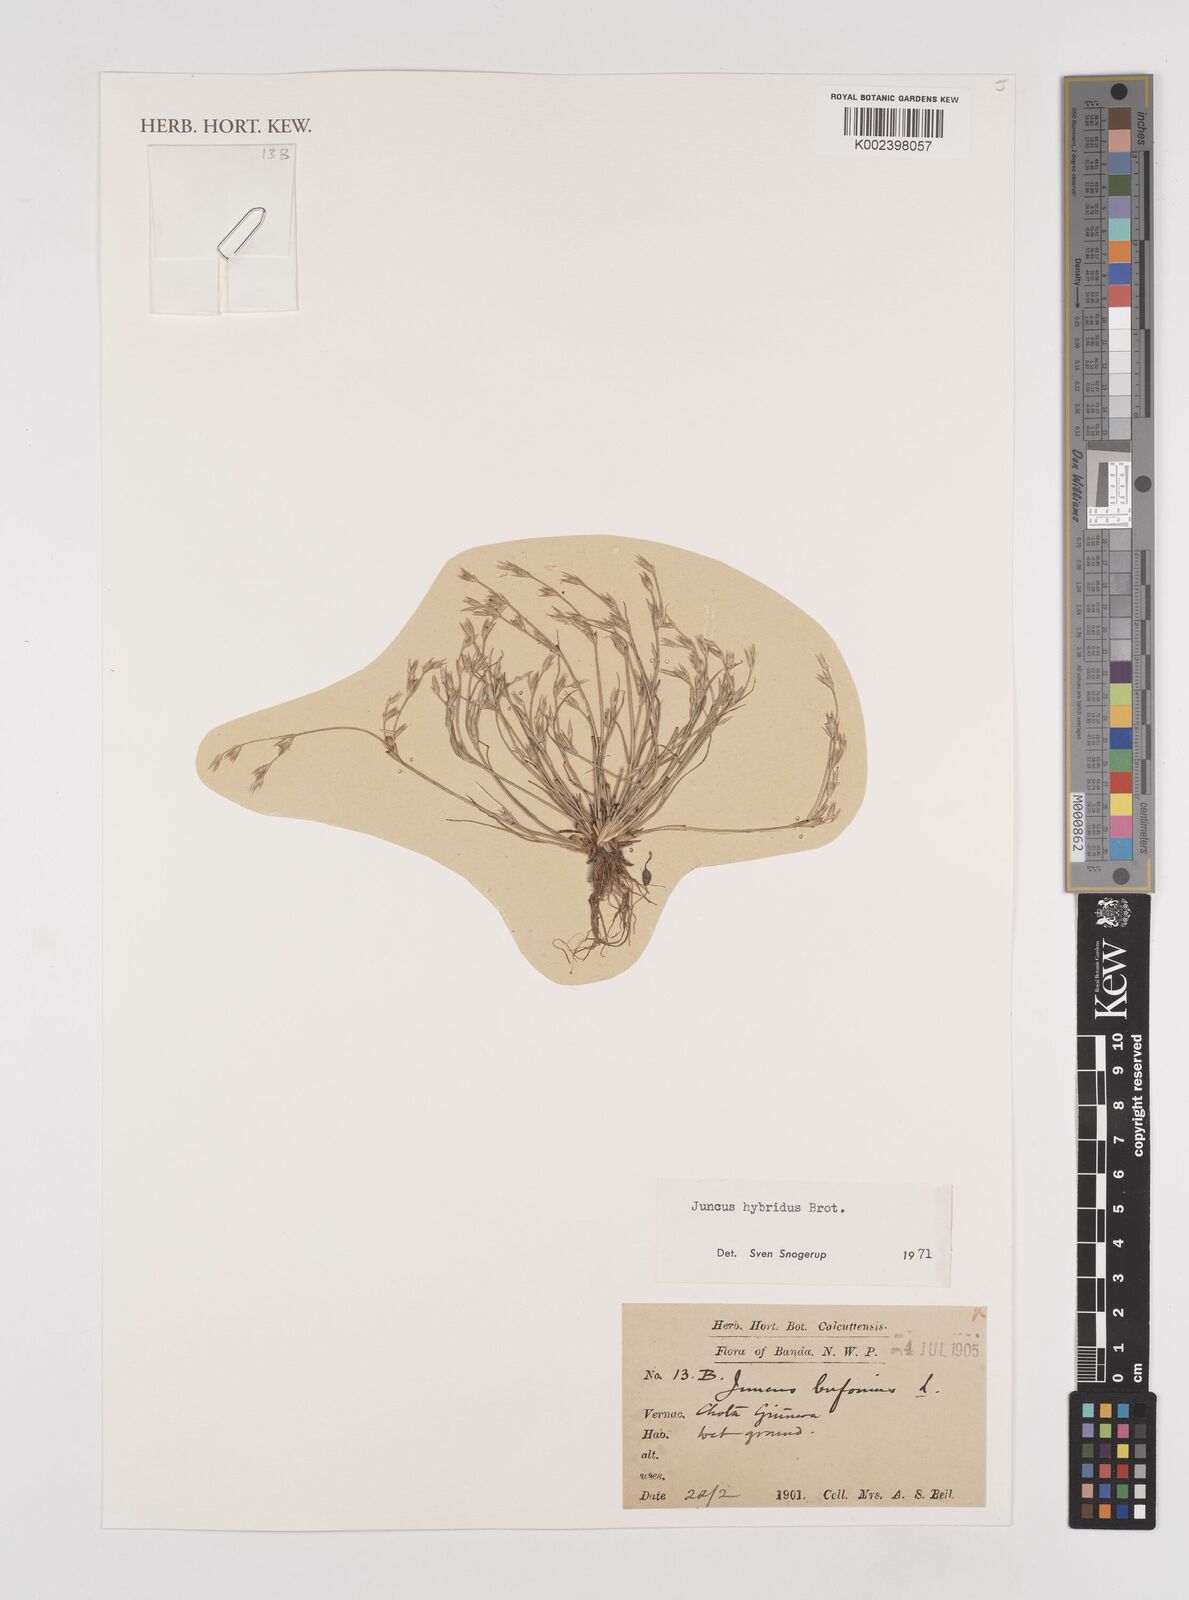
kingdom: Plantae
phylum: Tracheophyta
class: Liliopsida
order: Poales
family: Juncaceae
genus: Juncus
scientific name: Juncus hybridus
